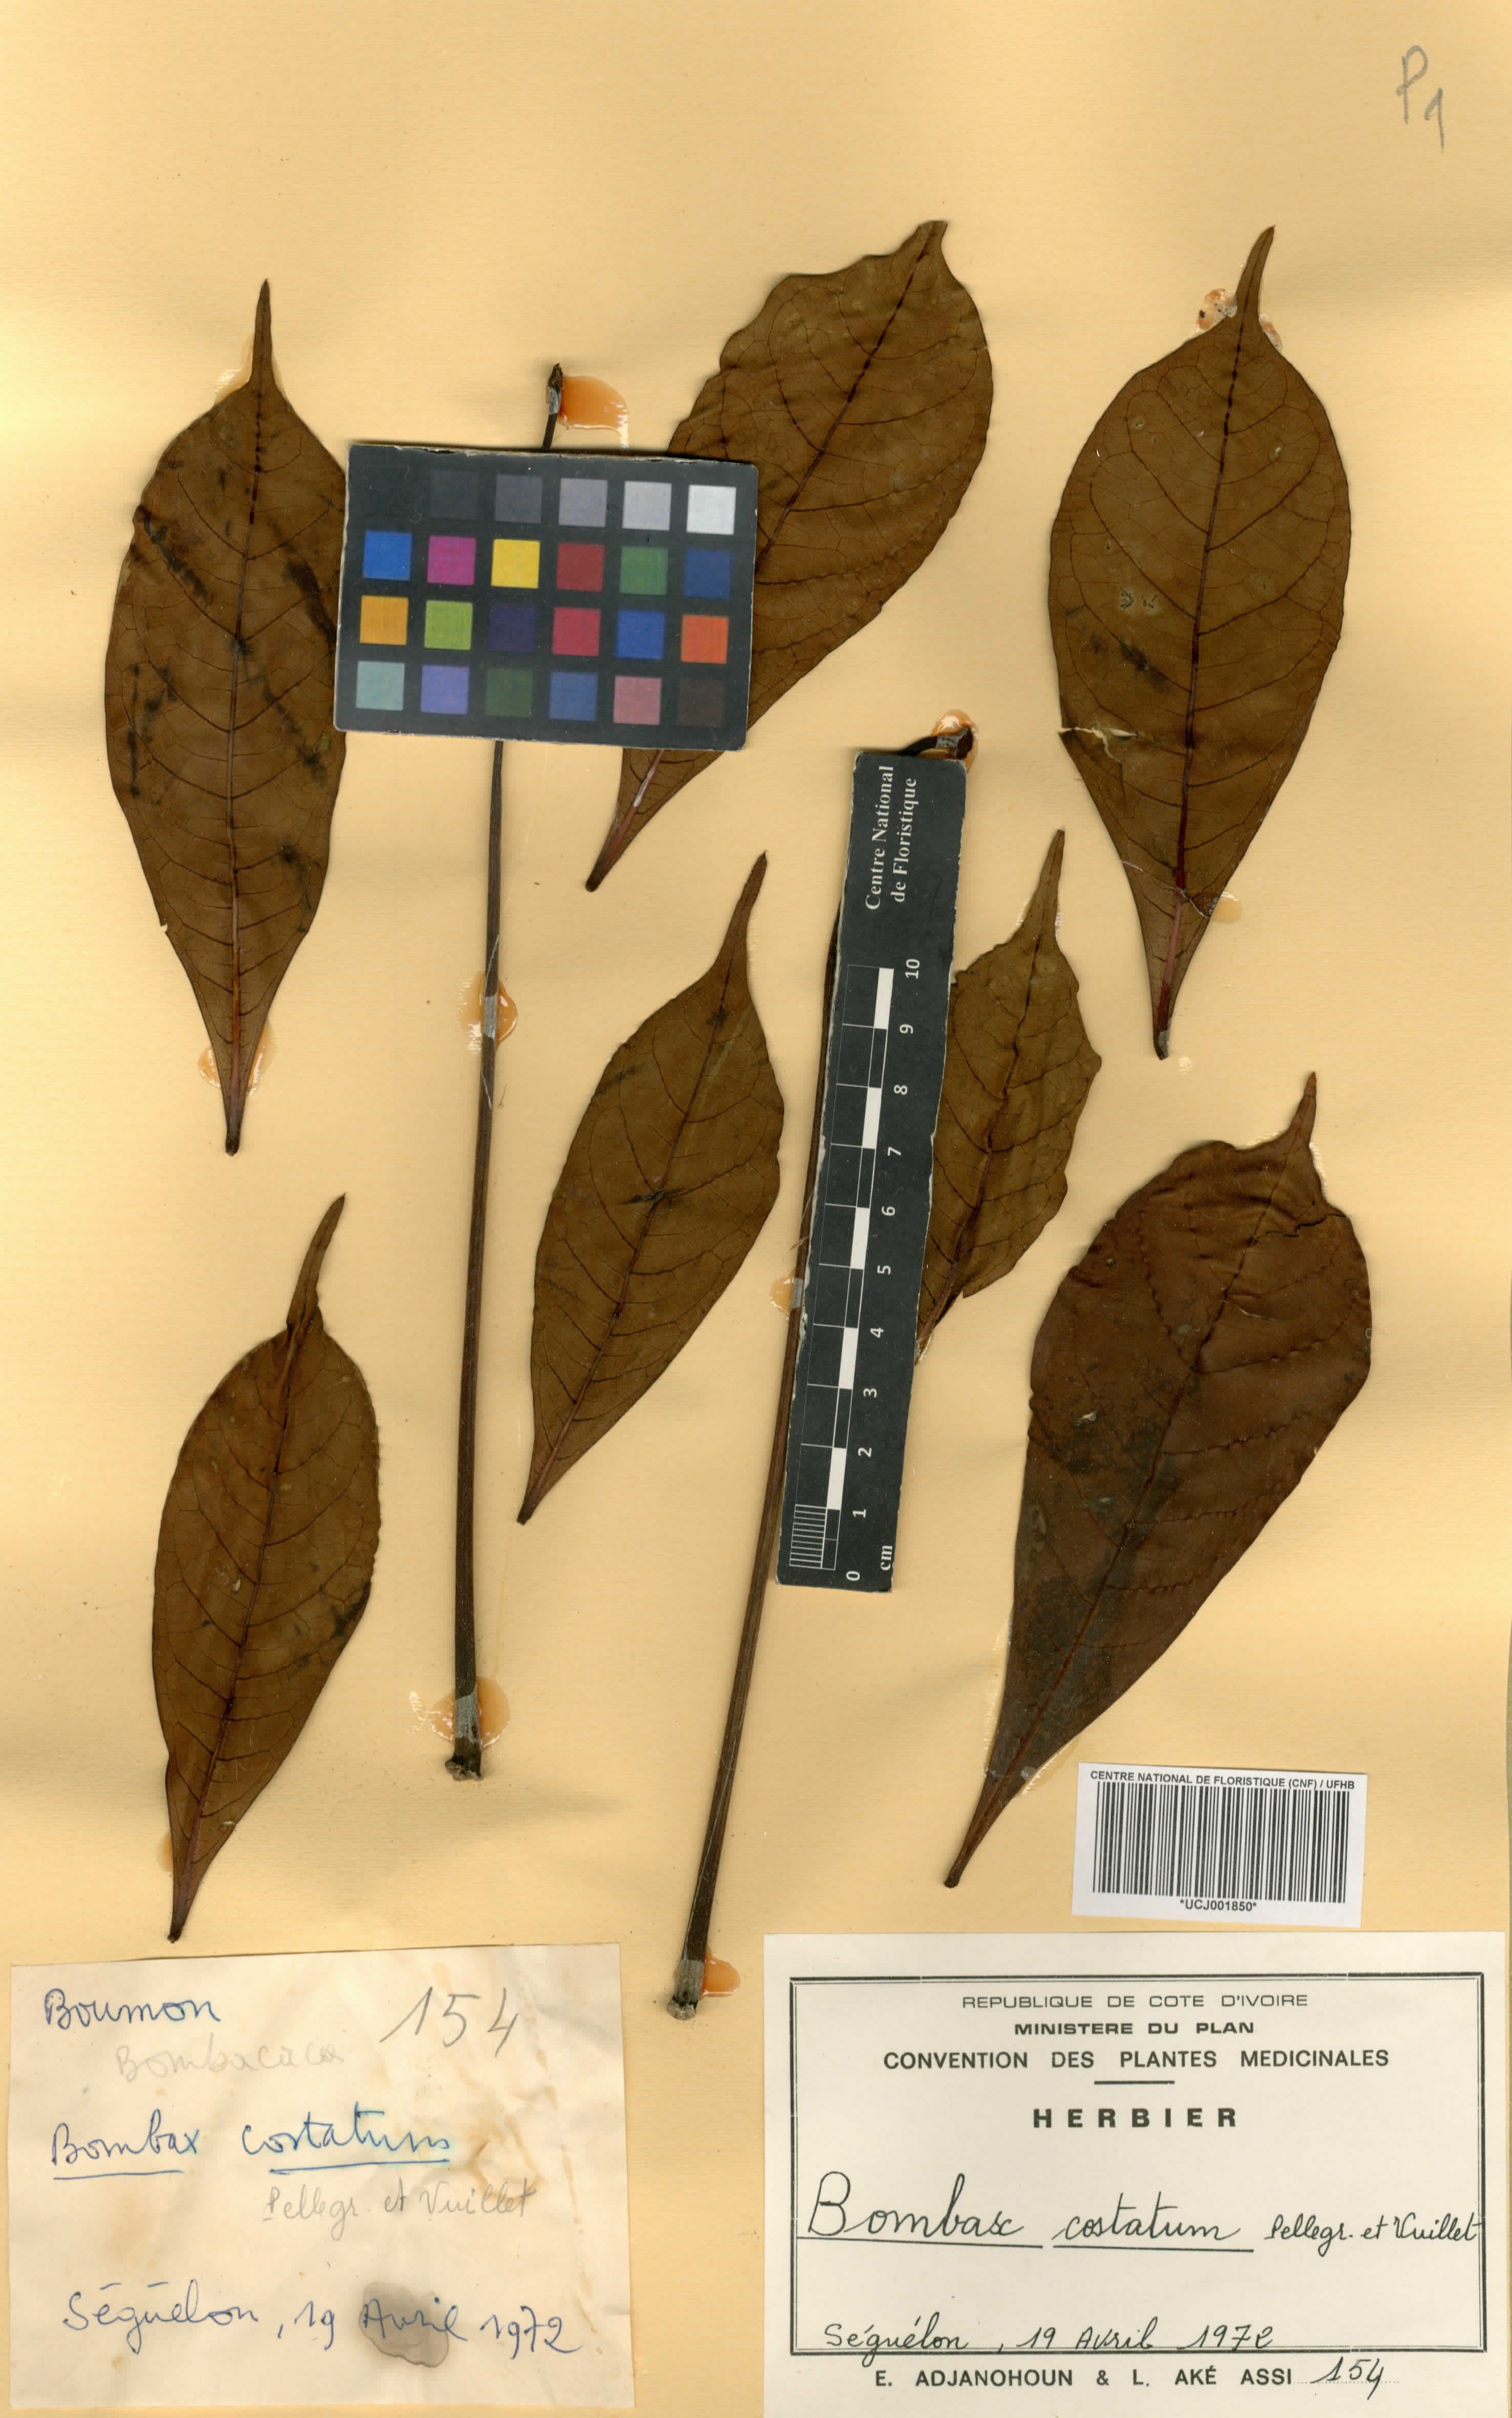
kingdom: Plantae
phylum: Tracheophyta
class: Magnoliopsida
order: Malvales
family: Malvaceae
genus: Bombax
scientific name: Bombax costatum
